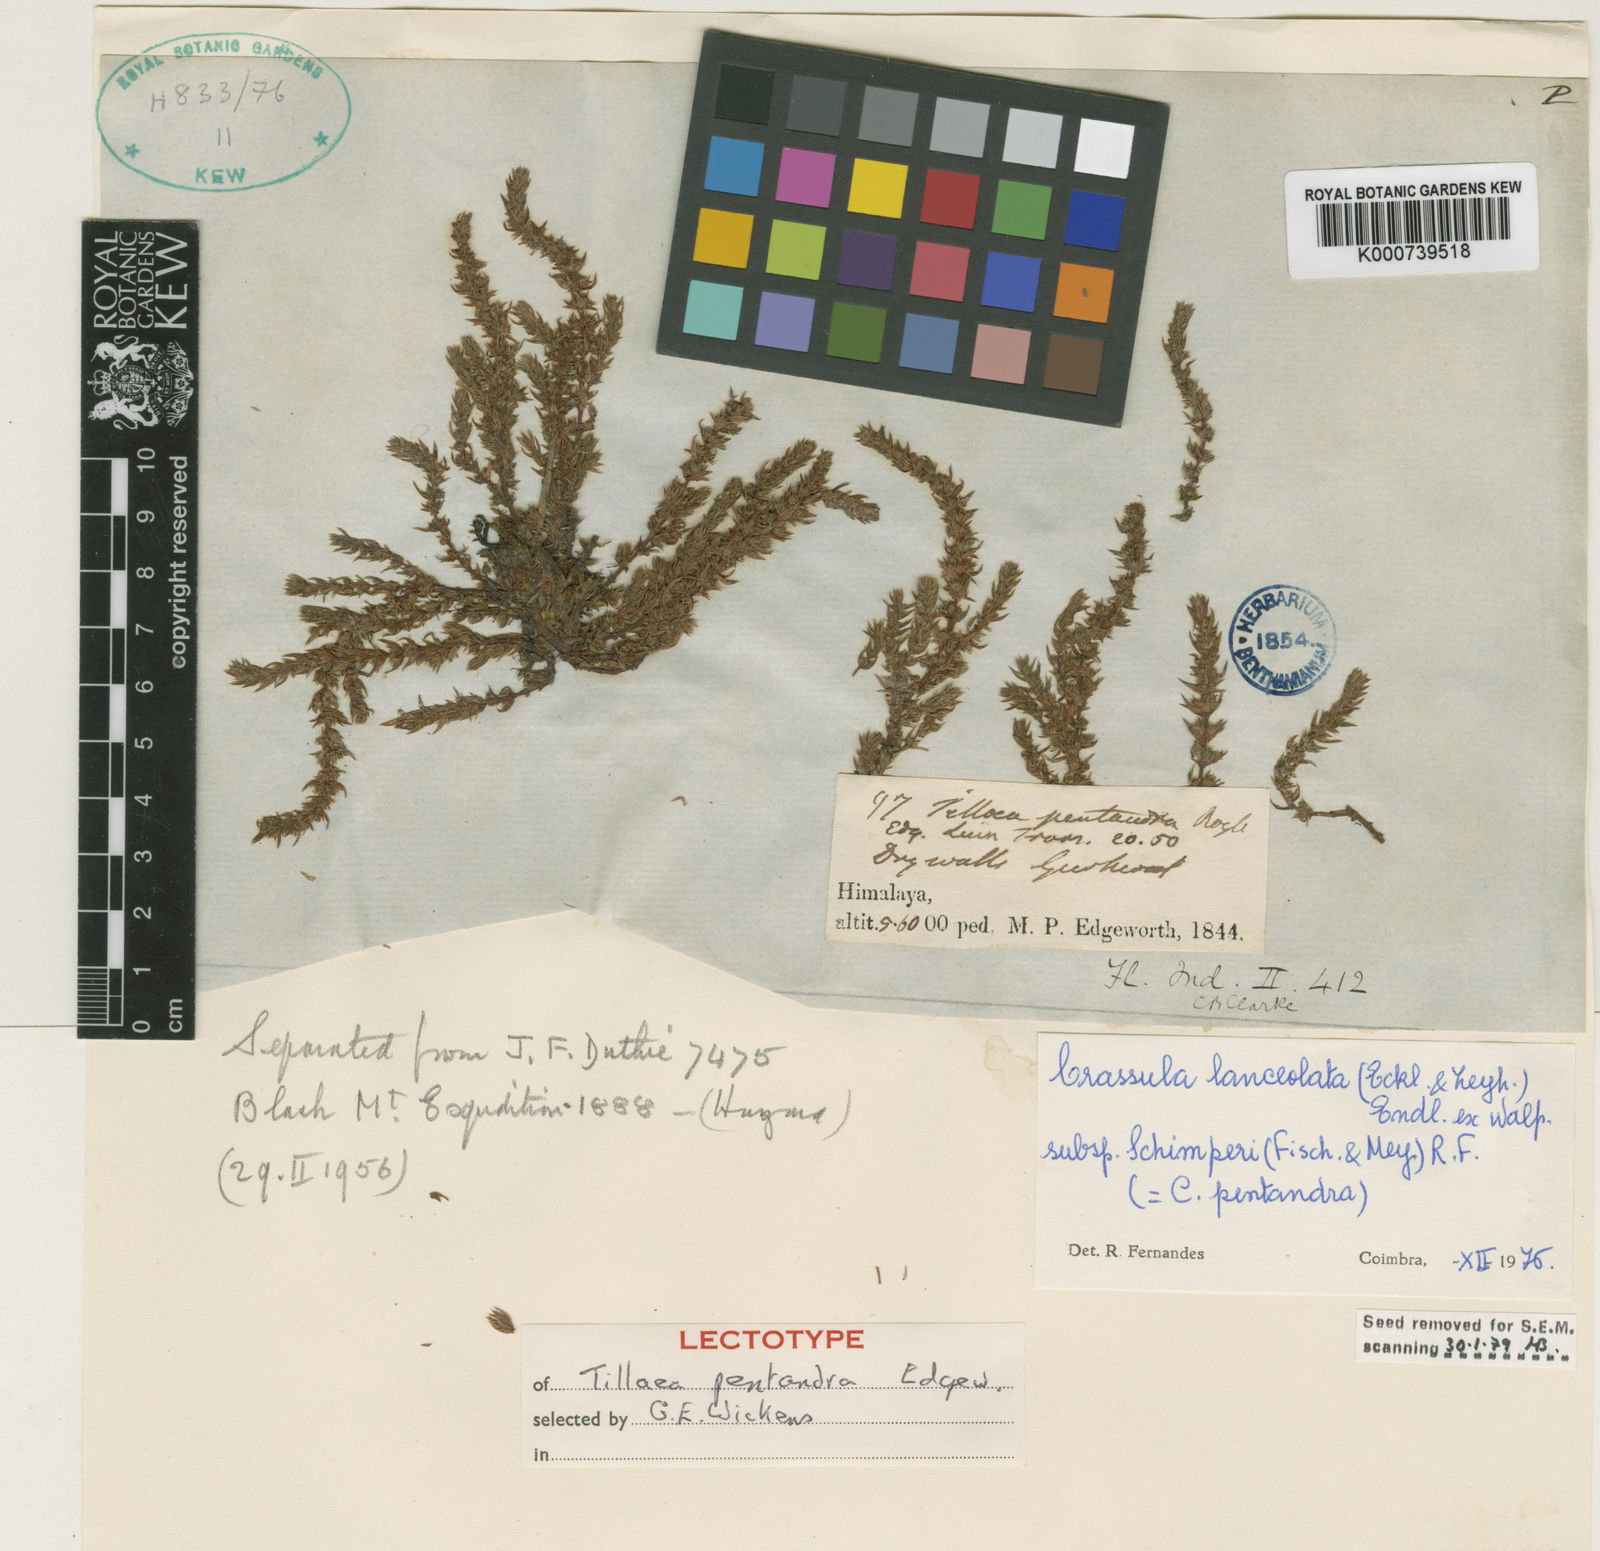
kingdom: Plantae
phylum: Tracheophyta
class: Magnoliopsida
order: Saxifragales
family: Crassulaceae
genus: Crassula
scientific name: Crassula schimperi
